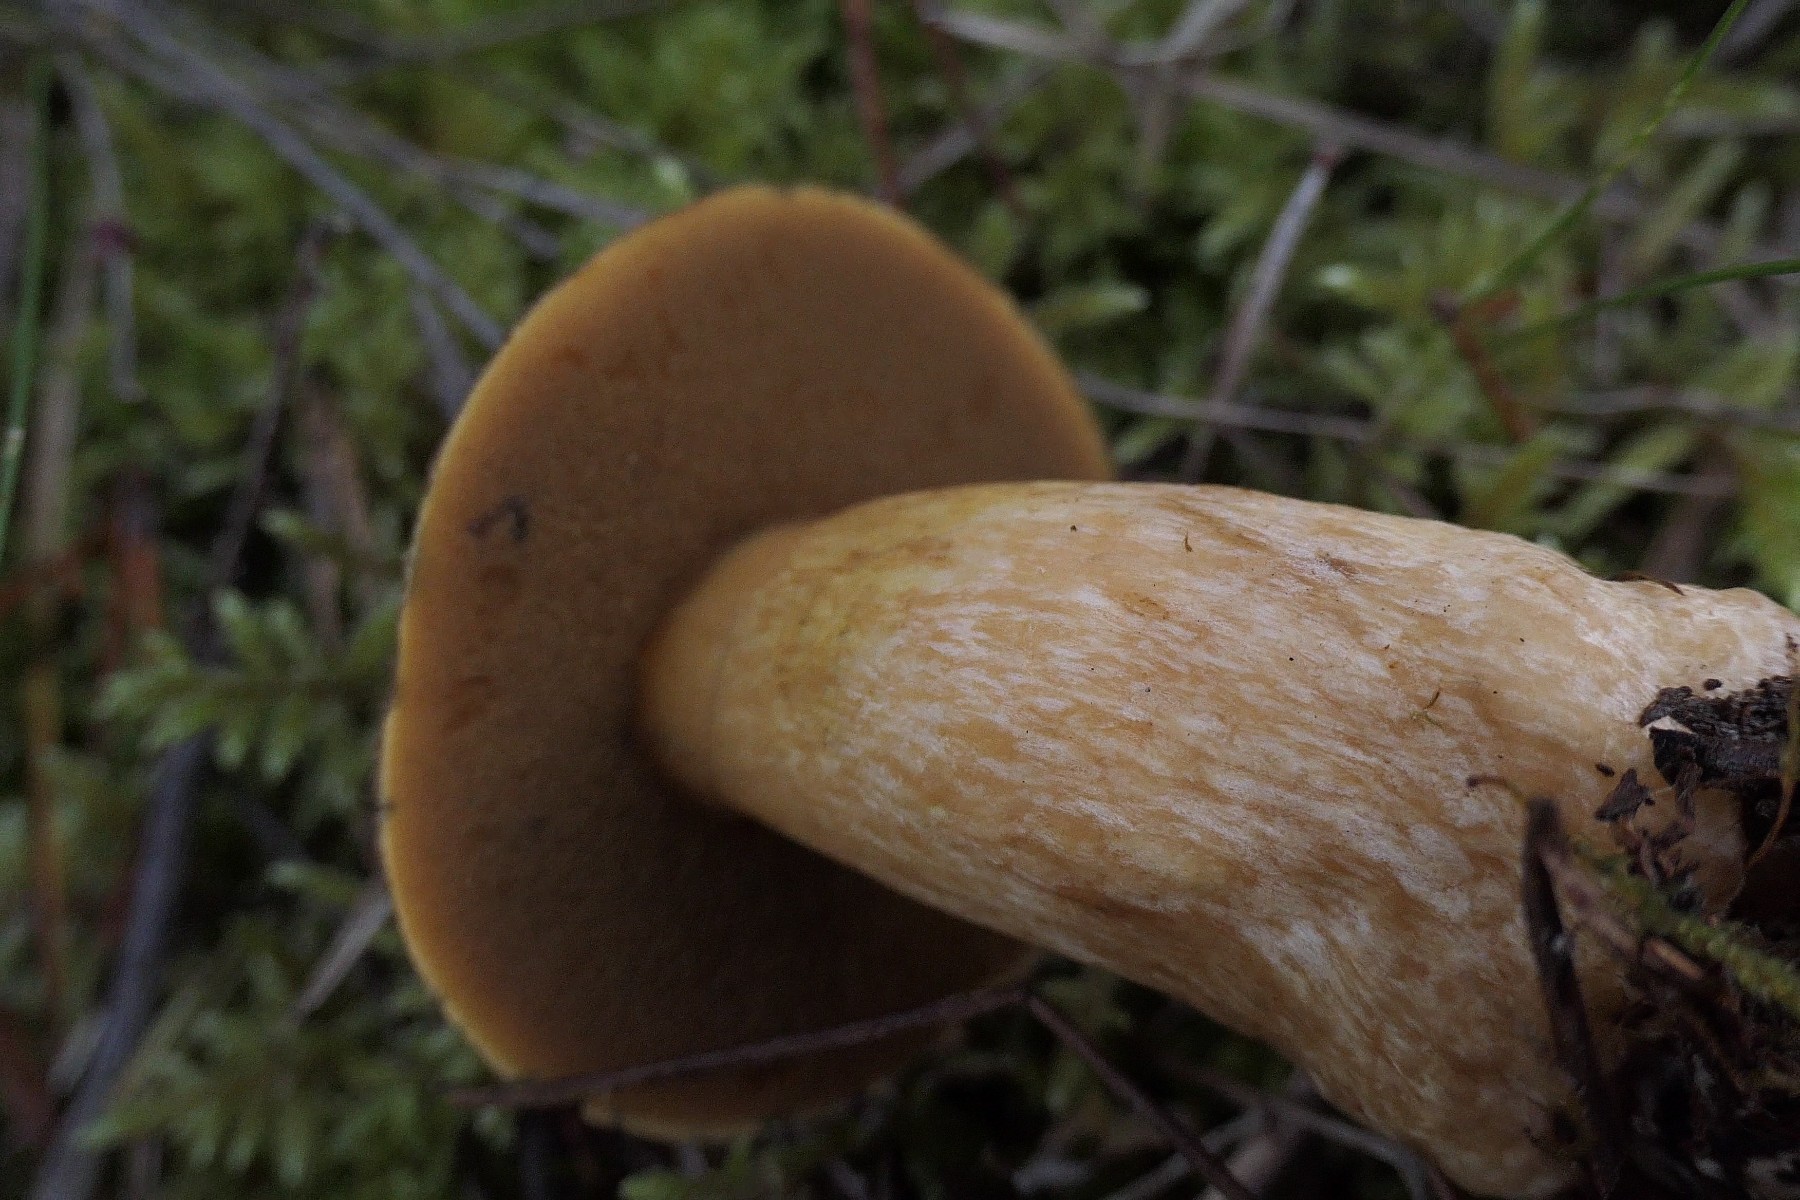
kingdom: Fungi
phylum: Basidiomycota
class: Agaricomycetes
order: Boletales
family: Suillaceae
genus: Suillus
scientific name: Suillus variegatus
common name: broget slimrørhat
